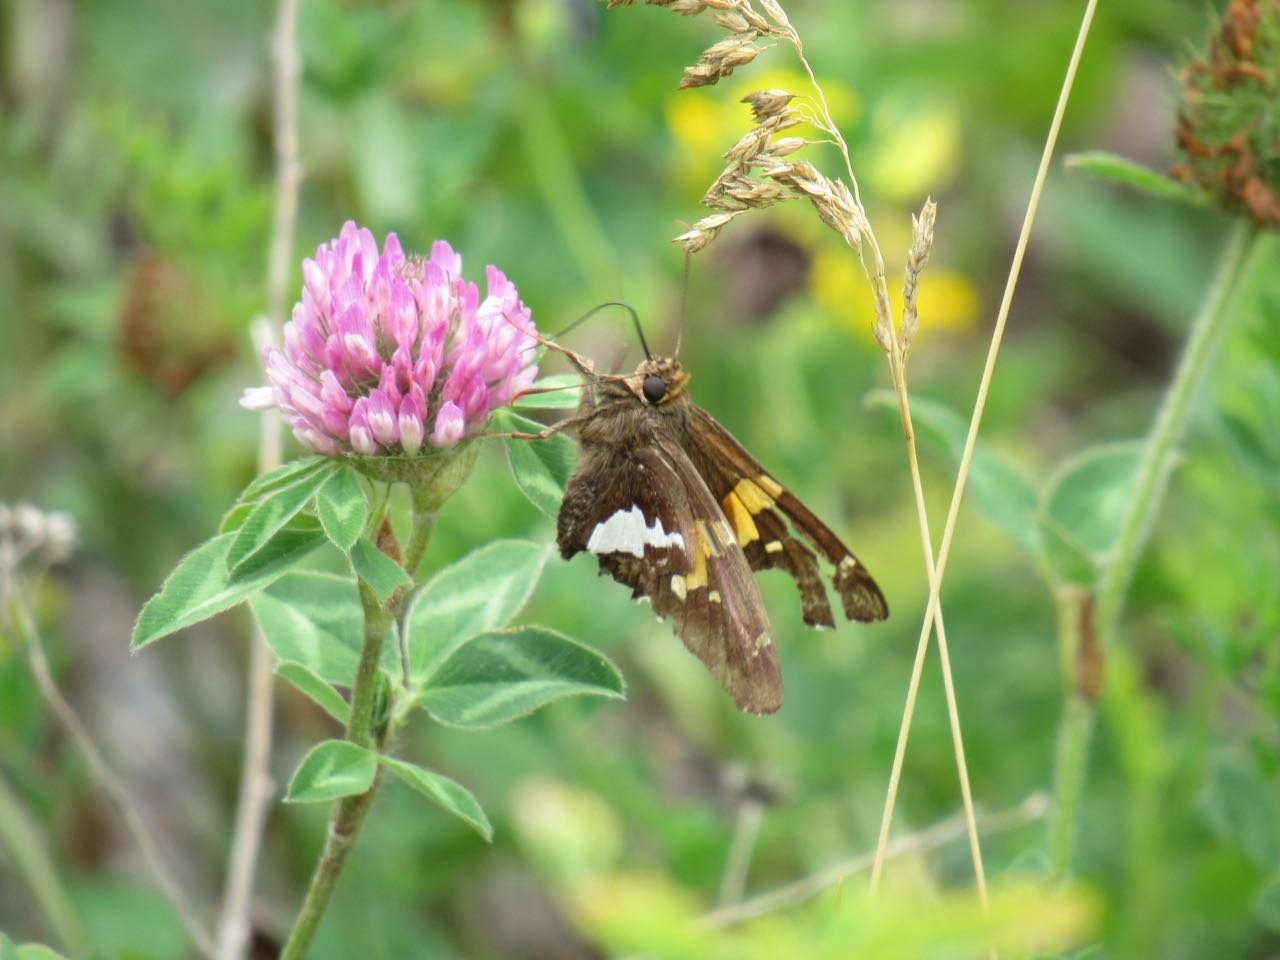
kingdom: Animalia
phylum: Arthropoda
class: Insecta
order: Lepidoptera
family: Hesperiidae
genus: Epargyreus
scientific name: Epargyreus clarus
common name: Silver-spotted Skipper
